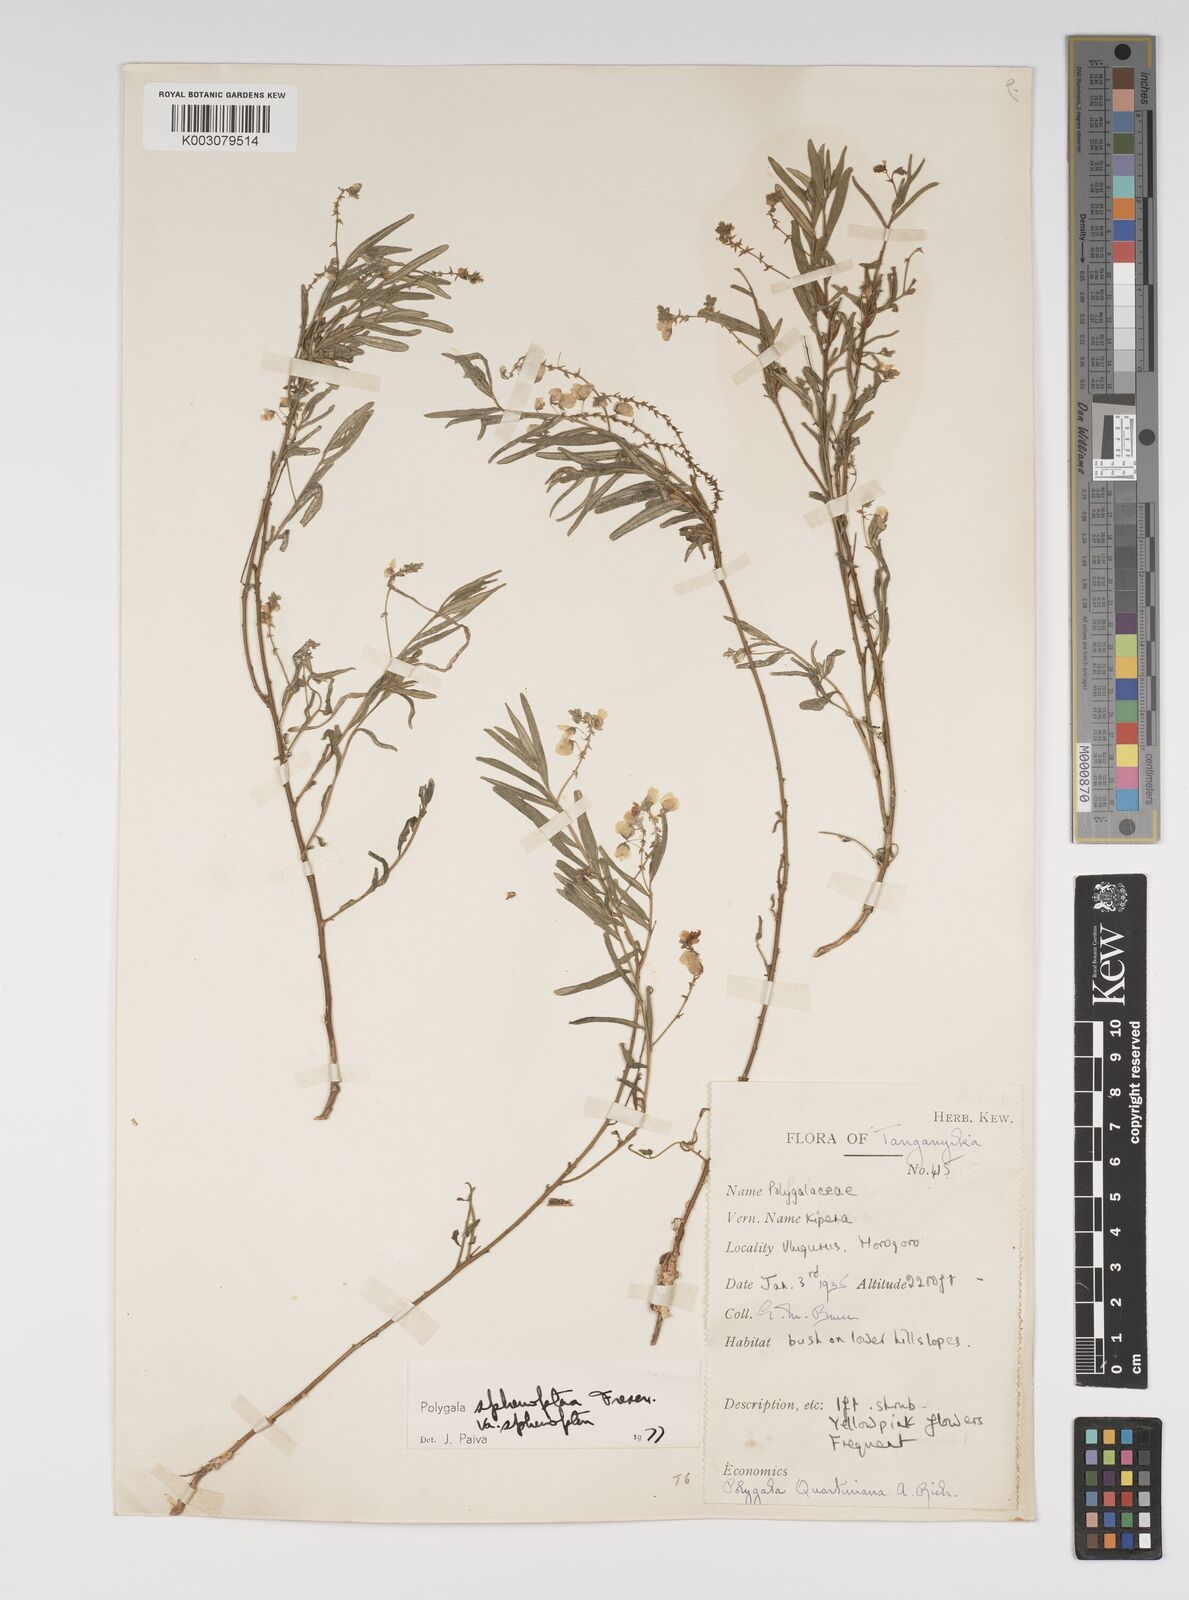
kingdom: Plantae
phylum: Tracheophyta
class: Magnoliopsida
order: Fabales
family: Polygalaceae
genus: Polygala
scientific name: Polygala sphenoptera
